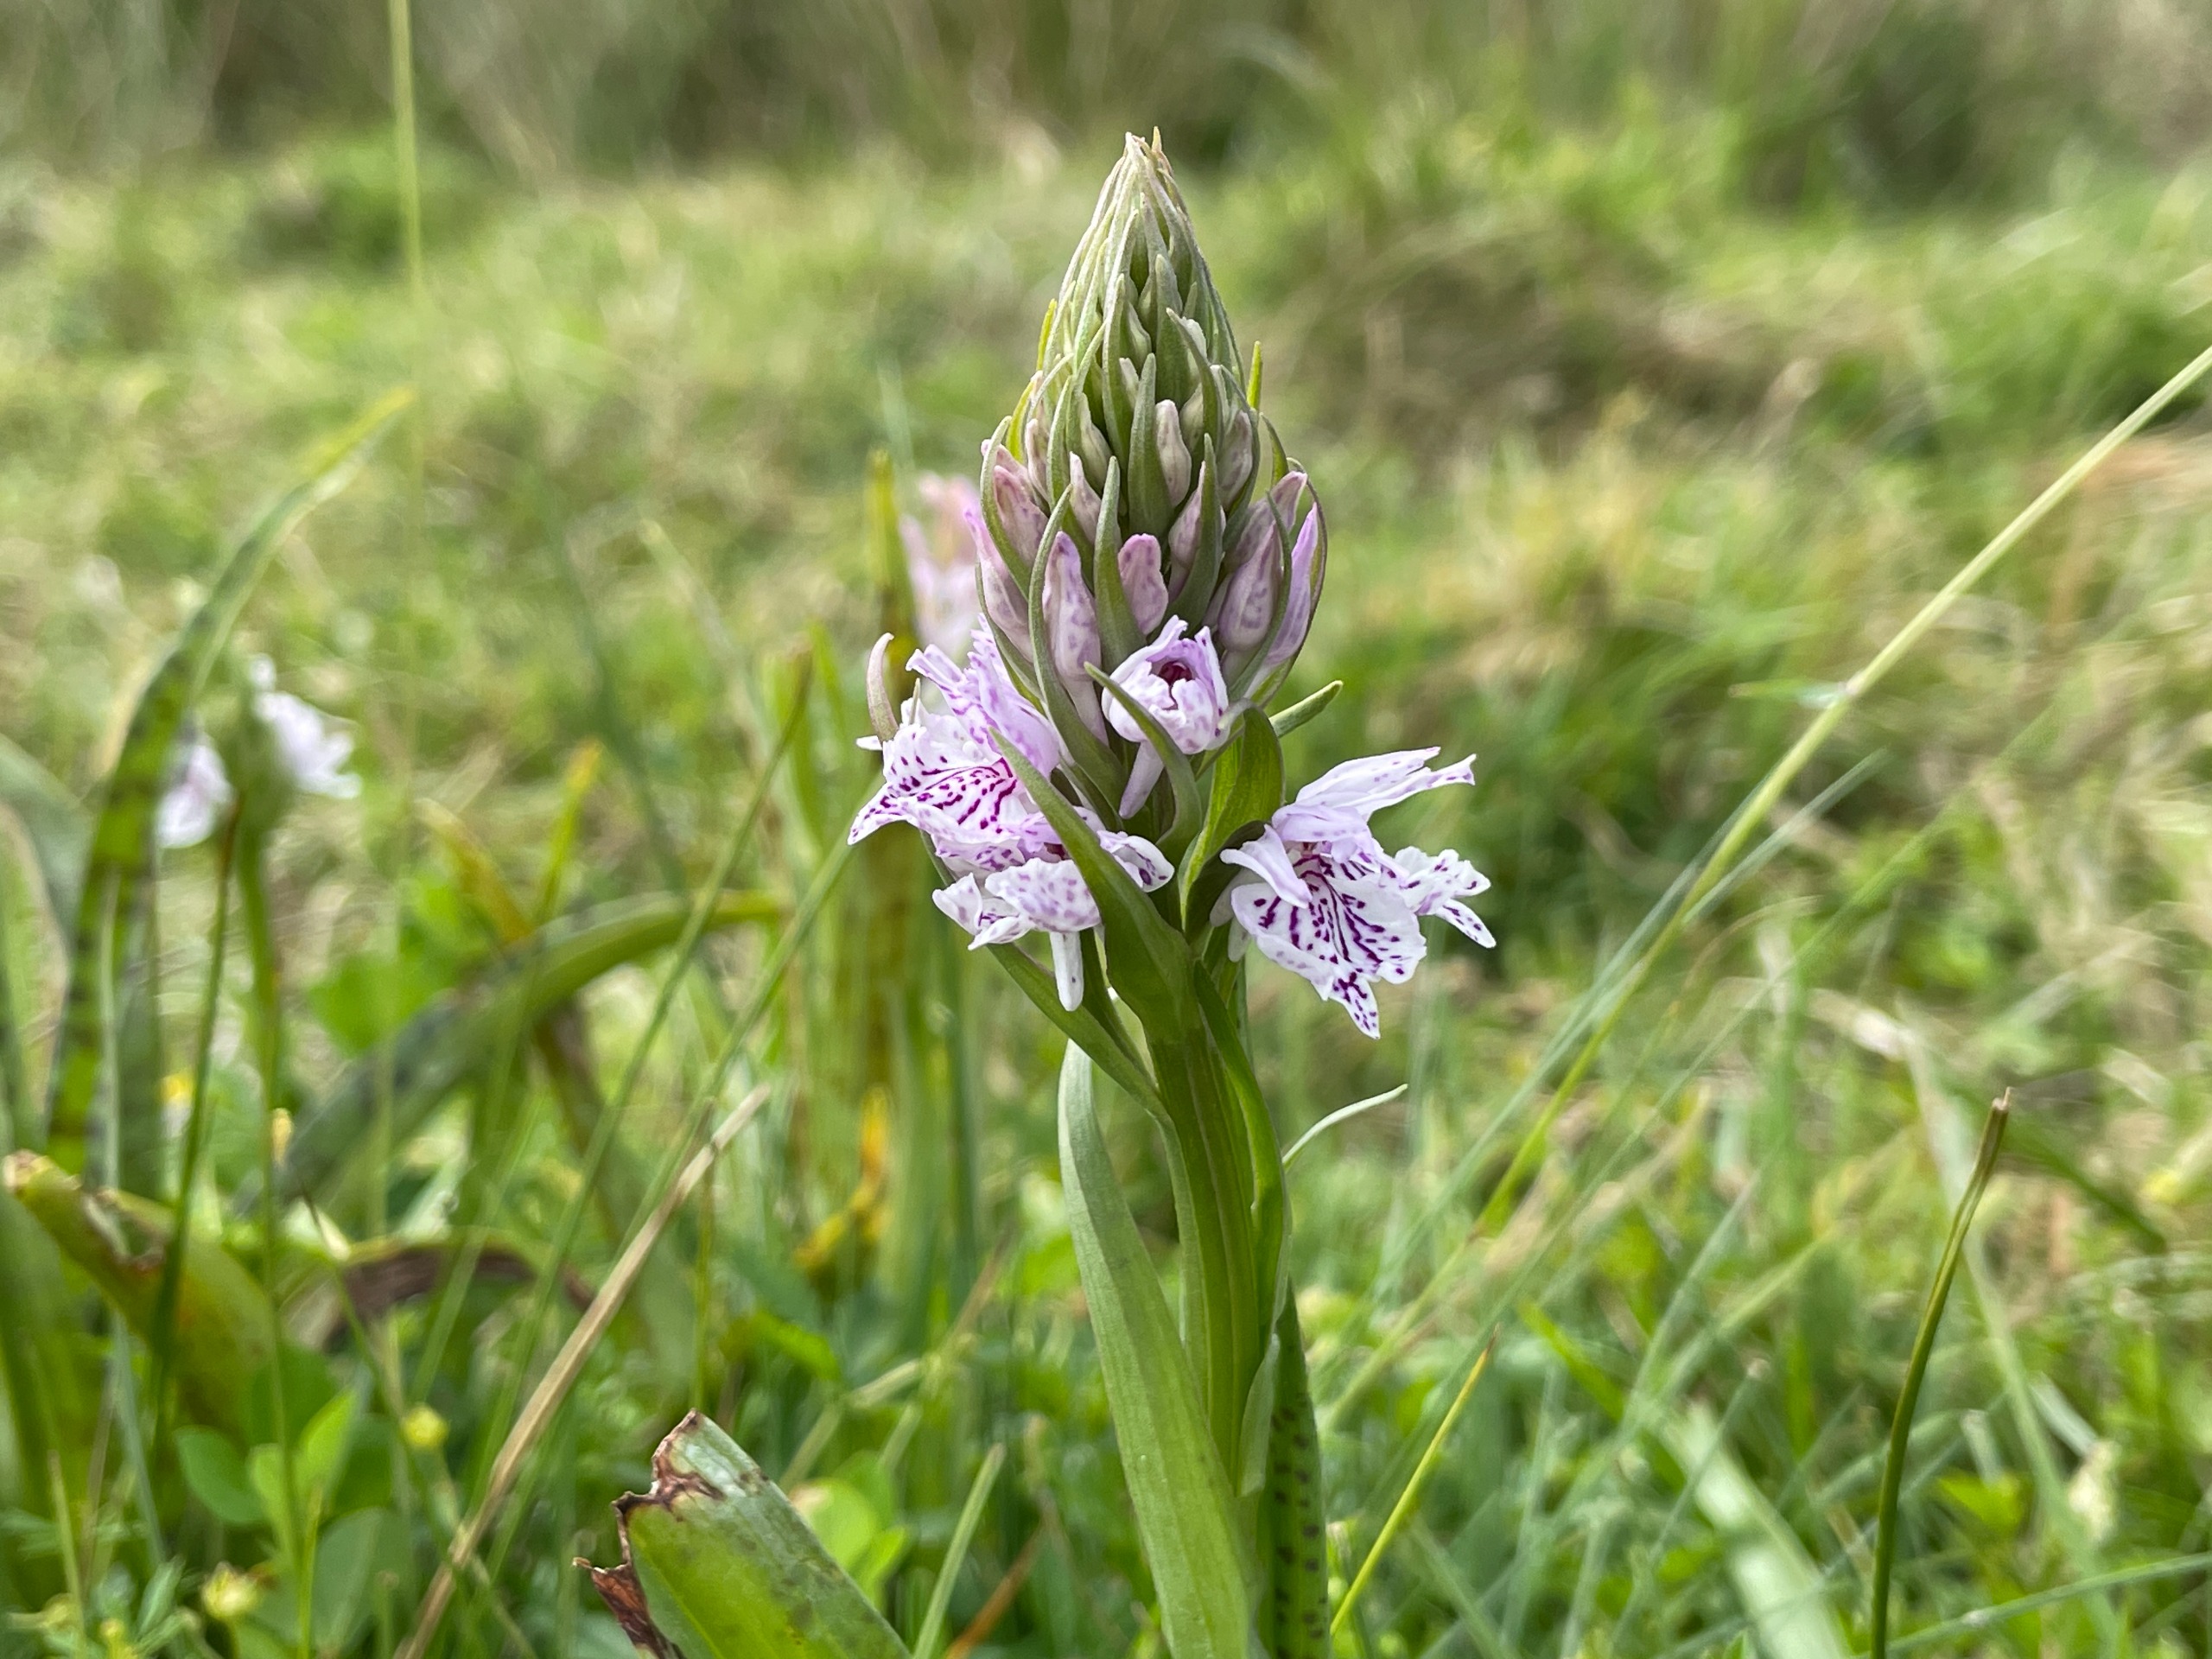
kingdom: Plantae
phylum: Tracheophyta
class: Liliopsida
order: Asparagales
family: Orchidaceae
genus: Dactylorhiza
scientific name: Dactylorhiza maculata
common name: Plettet gøgeurt
